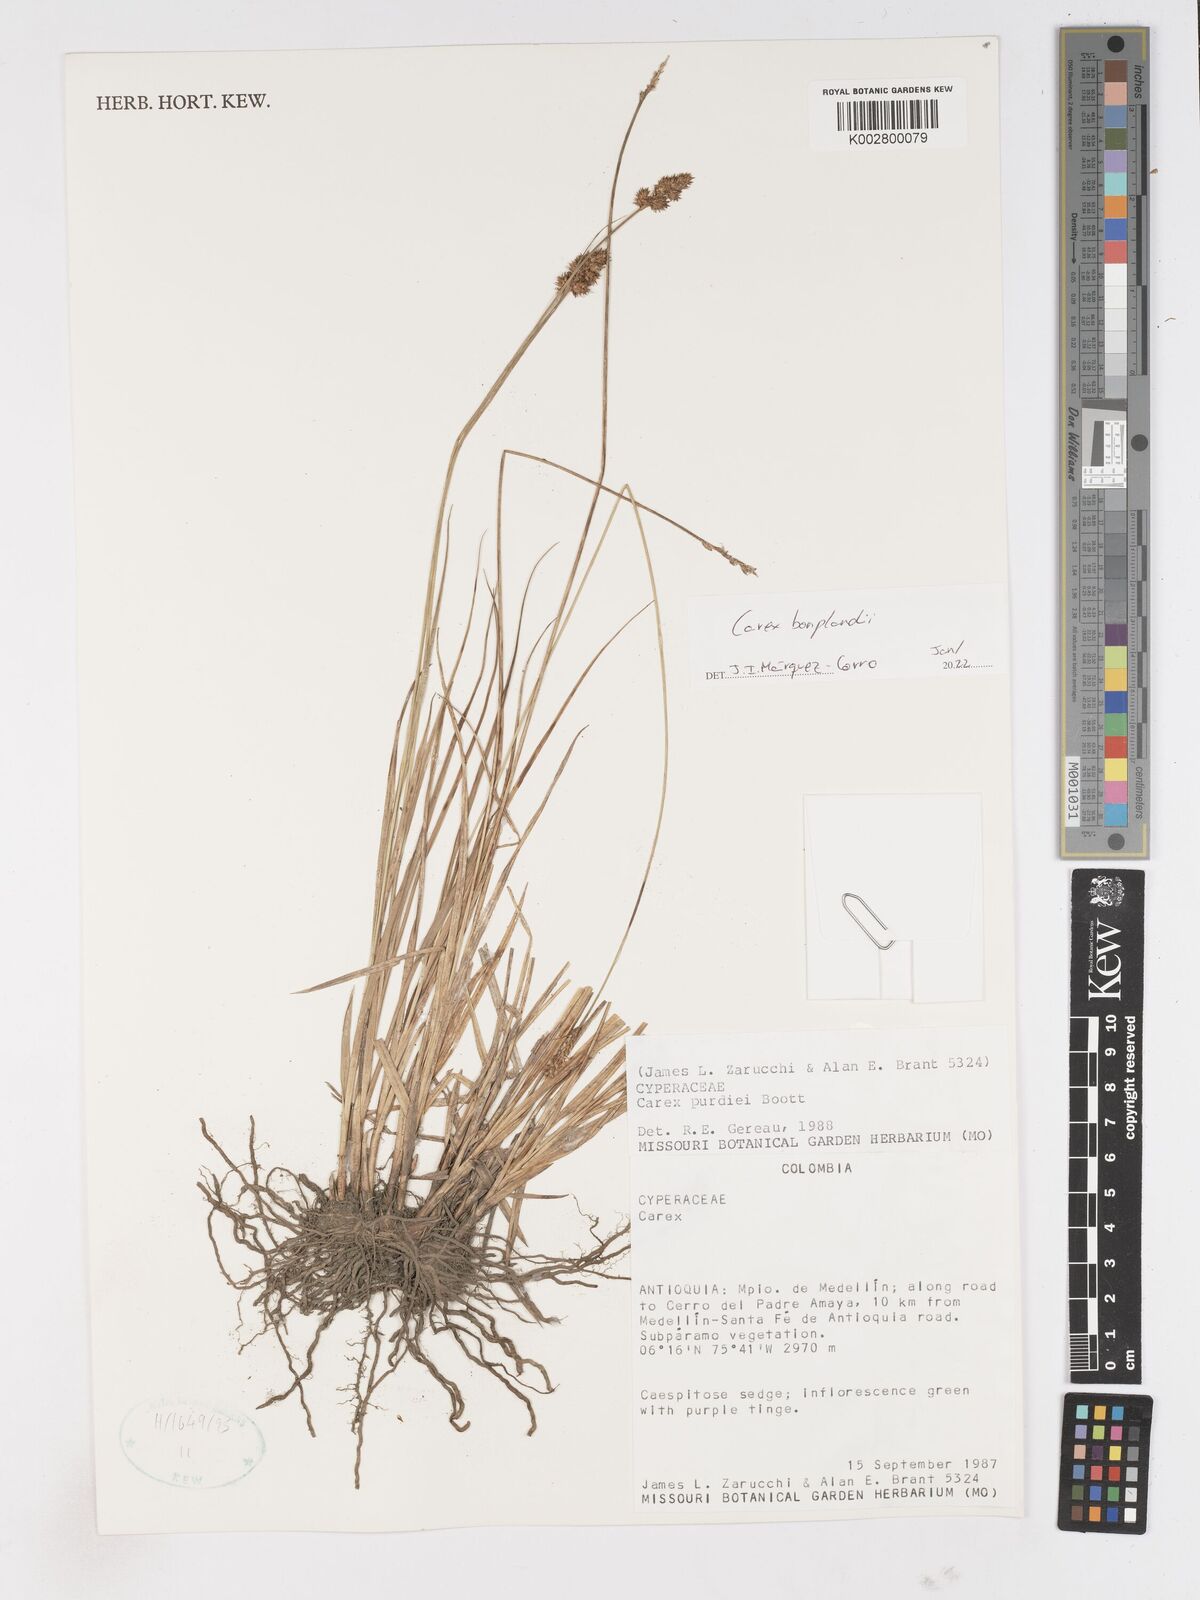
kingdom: Plantae
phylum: Tracheophyta
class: Liliopsida
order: Poales
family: Cyperaceae
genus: Carex
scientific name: Carex bonplandii
